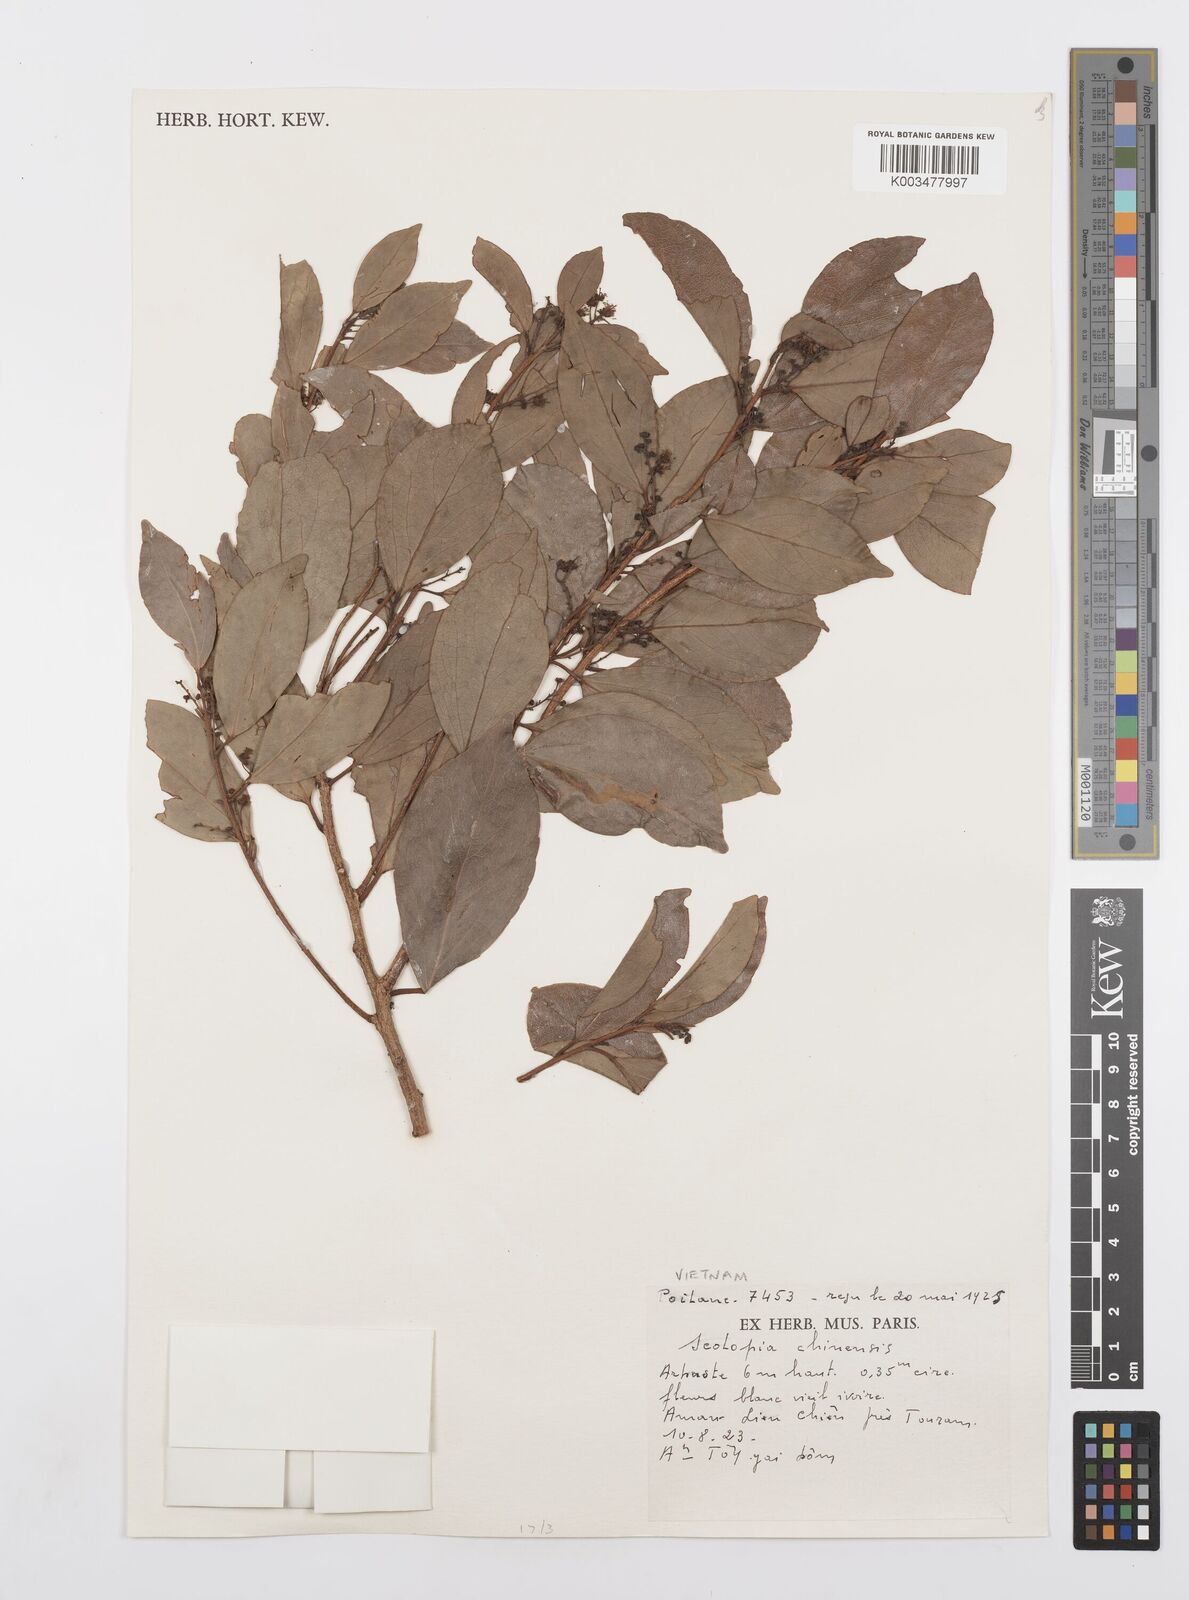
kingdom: Plantae
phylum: Tracheophyta
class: Magnoliopsida
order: Malpighiales
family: Salicaceae
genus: Scolopia
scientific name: Scolopia chinensis
